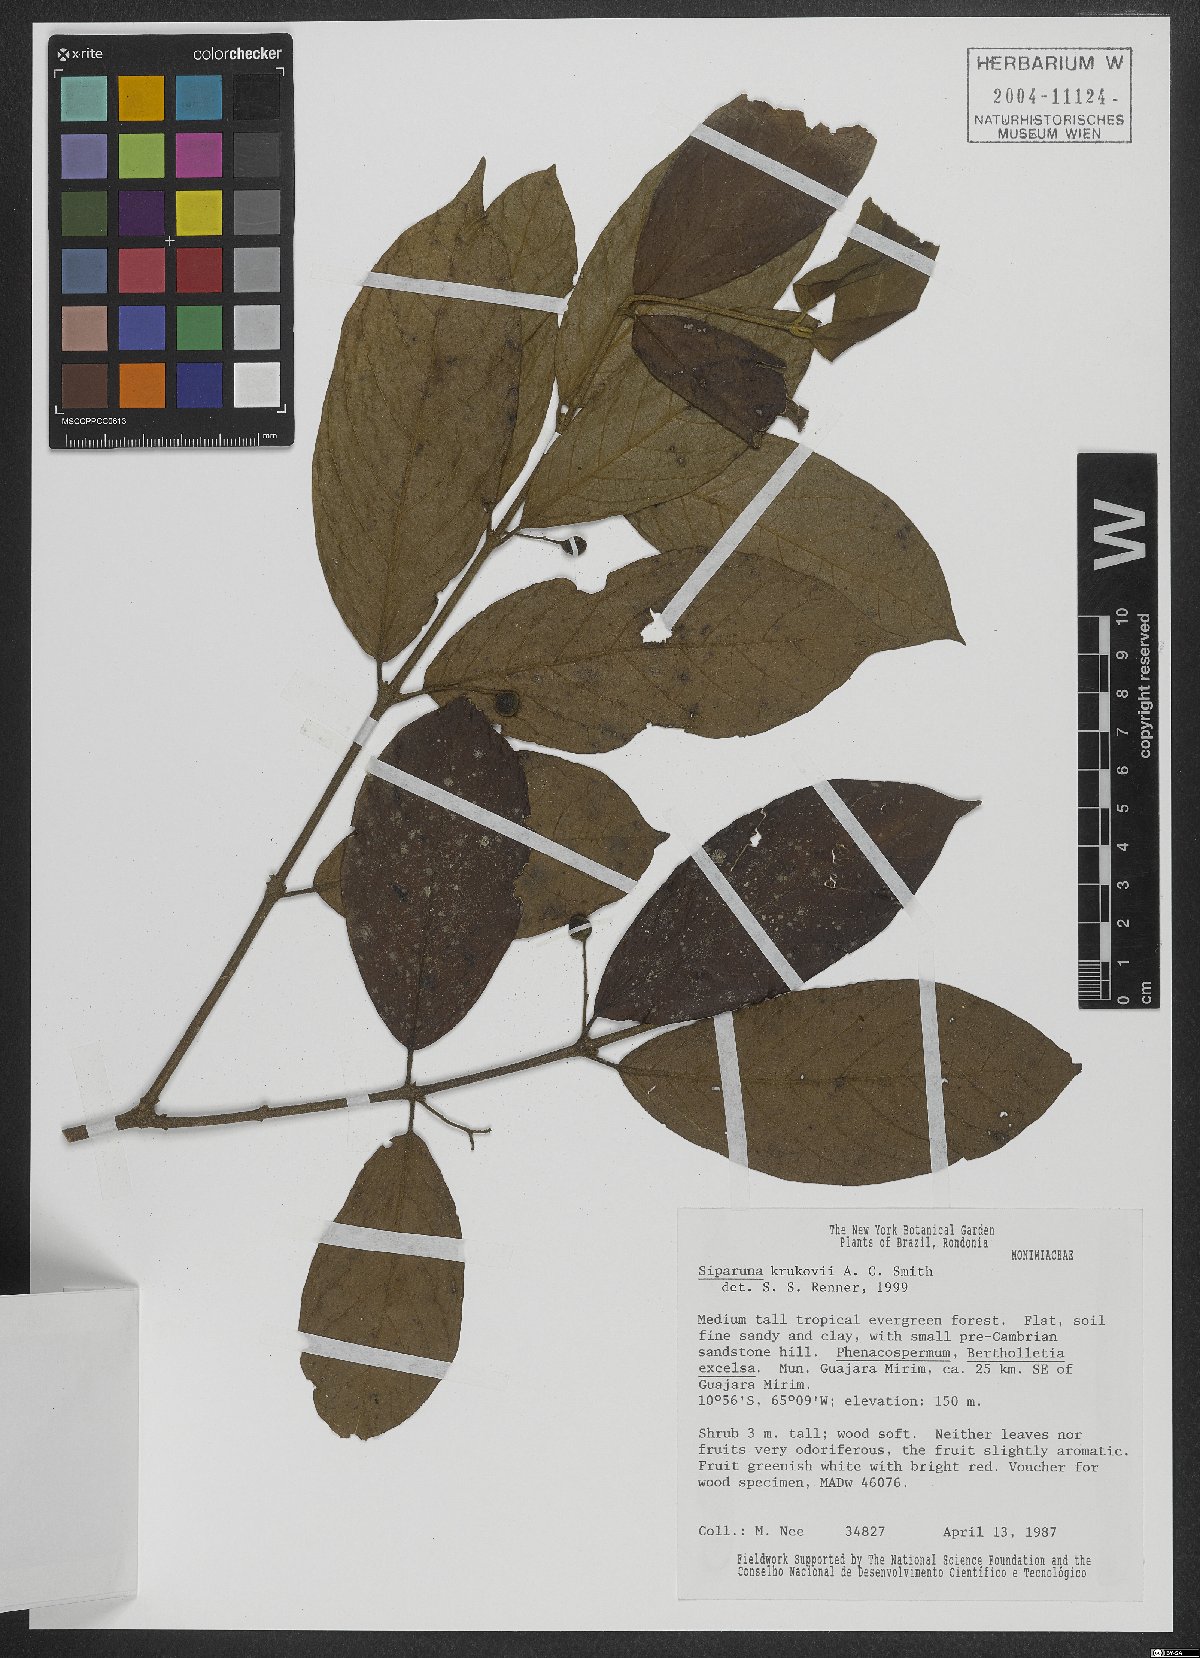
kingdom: Plantae
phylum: Tracheophyta
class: Magnoliopsida
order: Laurales
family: Siparunaceae
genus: Siparuna
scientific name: Siparuna krukovii
